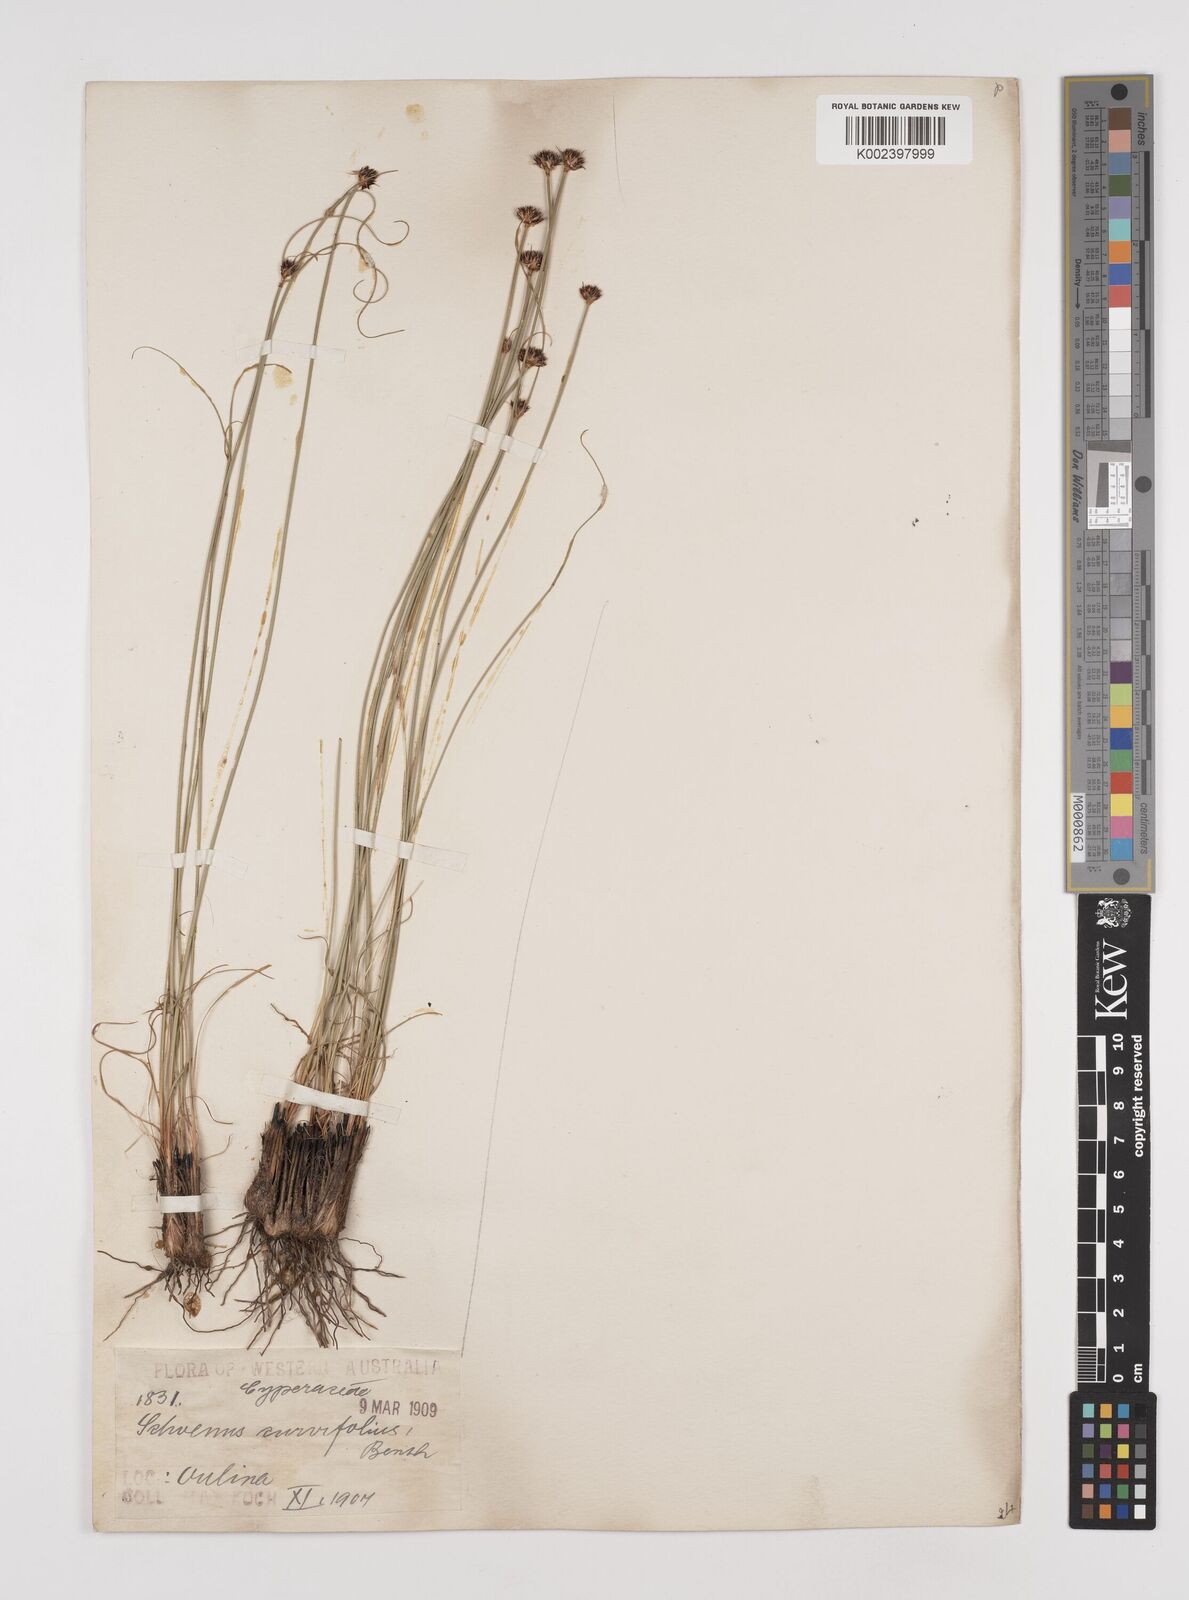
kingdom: Plantae
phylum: Tracheophyta
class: Liliopsida
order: Poales
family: Cyperaceae
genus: Schoenus
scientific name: Schoenus curvifolius
